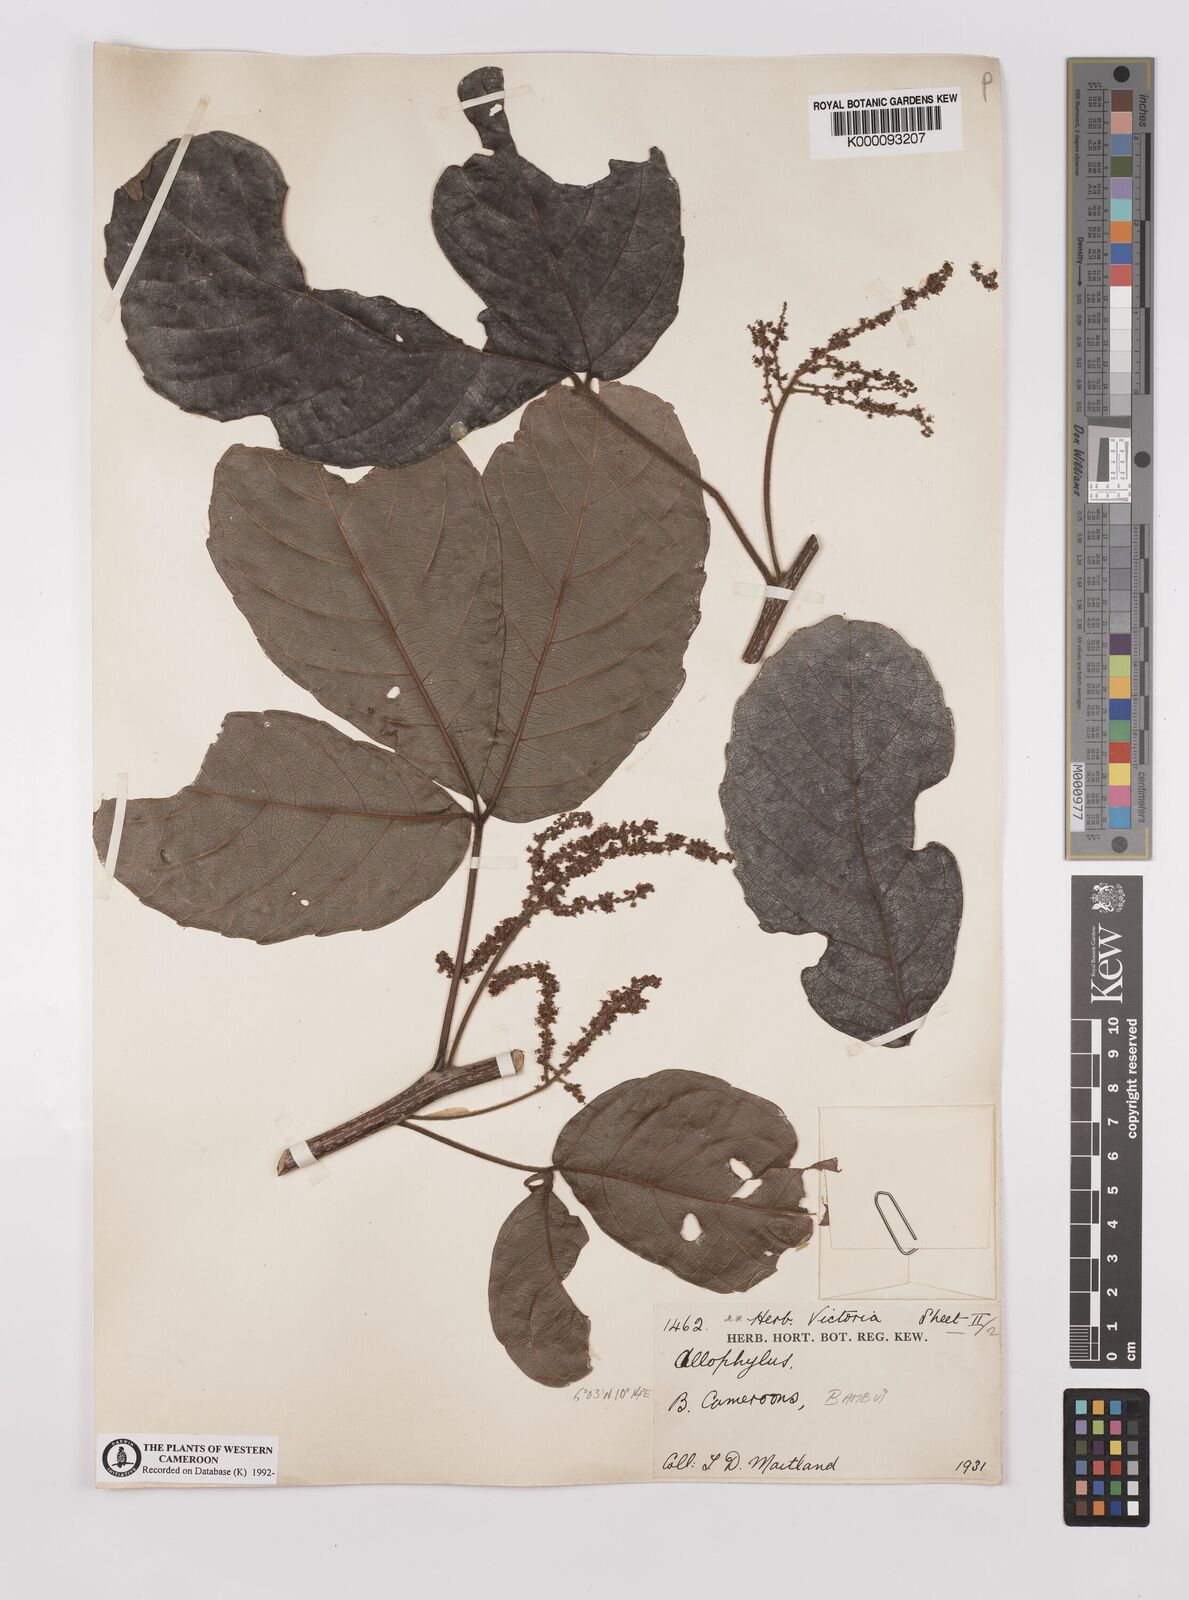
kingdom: Plantae
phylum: Tracheophyta
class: Magnoliopsida
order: Sapindales
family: Sapindaceae
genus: Allophylus
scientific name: Allophylus
